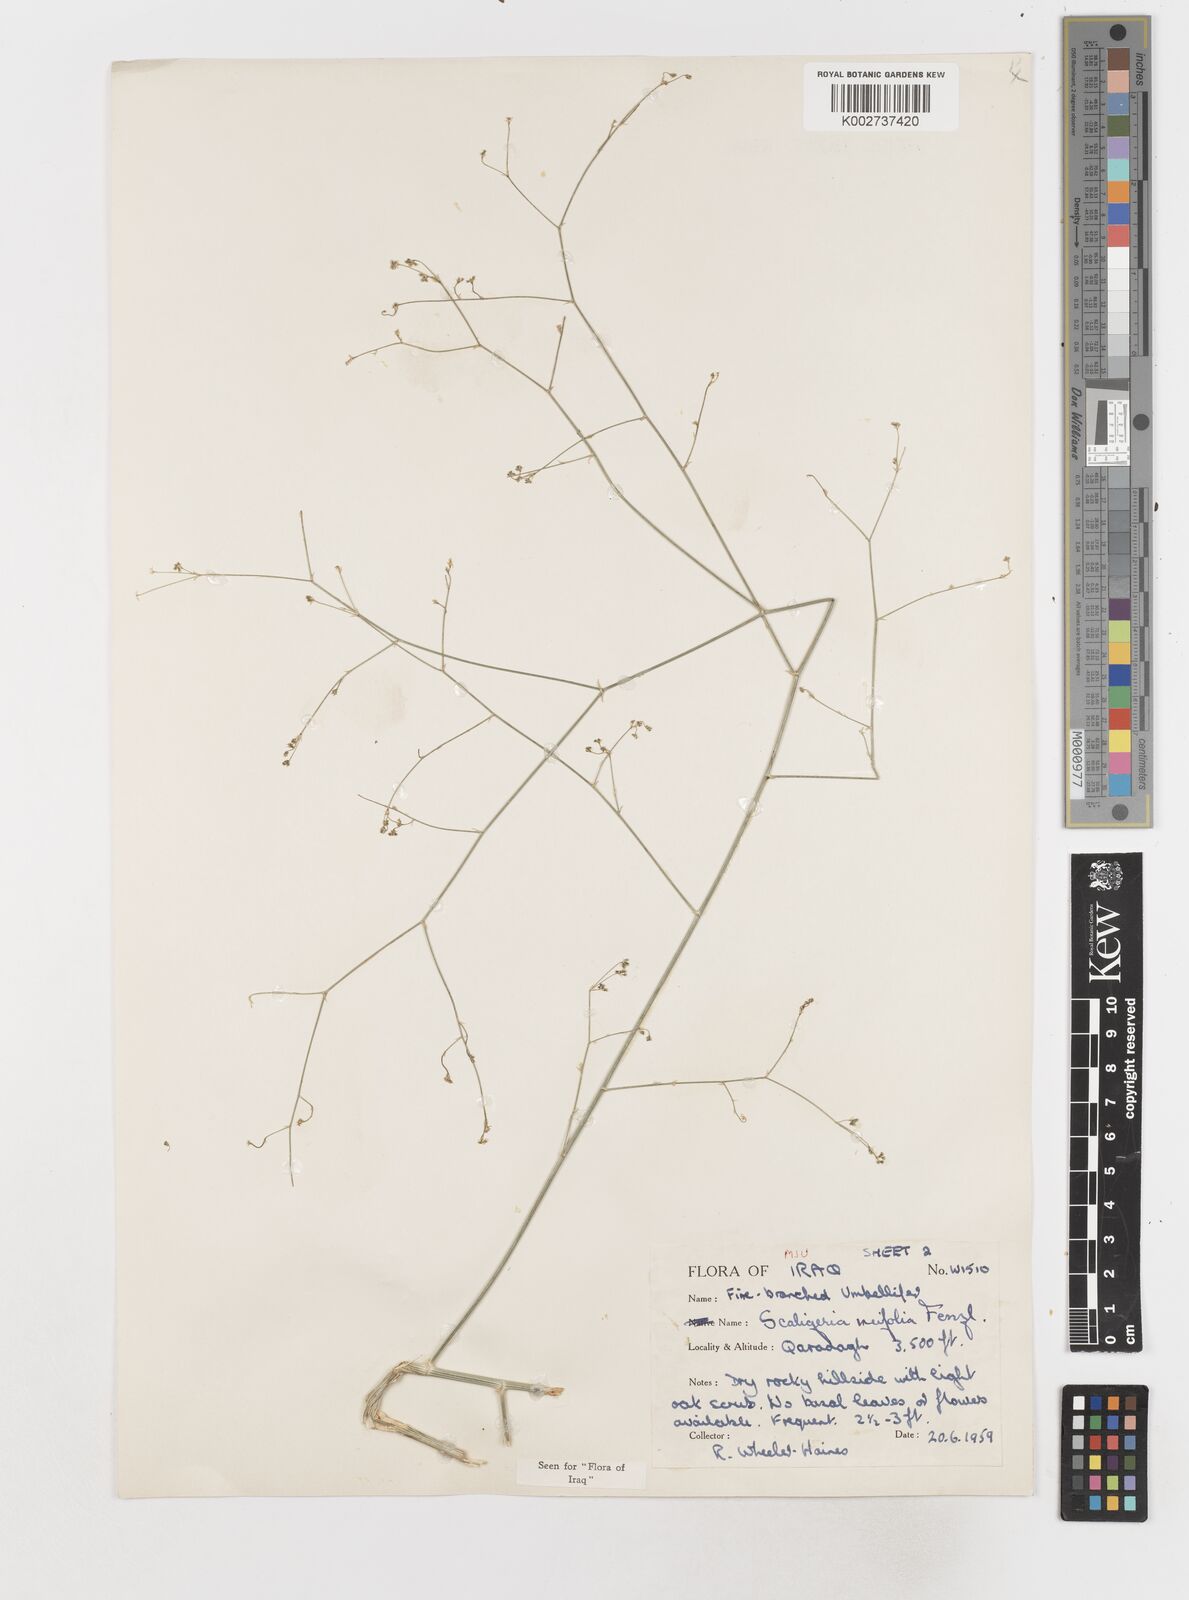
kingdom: Plantae
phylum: Tracheophyta
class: Magnoliopsida
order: Apiales
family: Apiaceae
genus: Elaeosticta
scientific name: Elaeosticta meifolia
